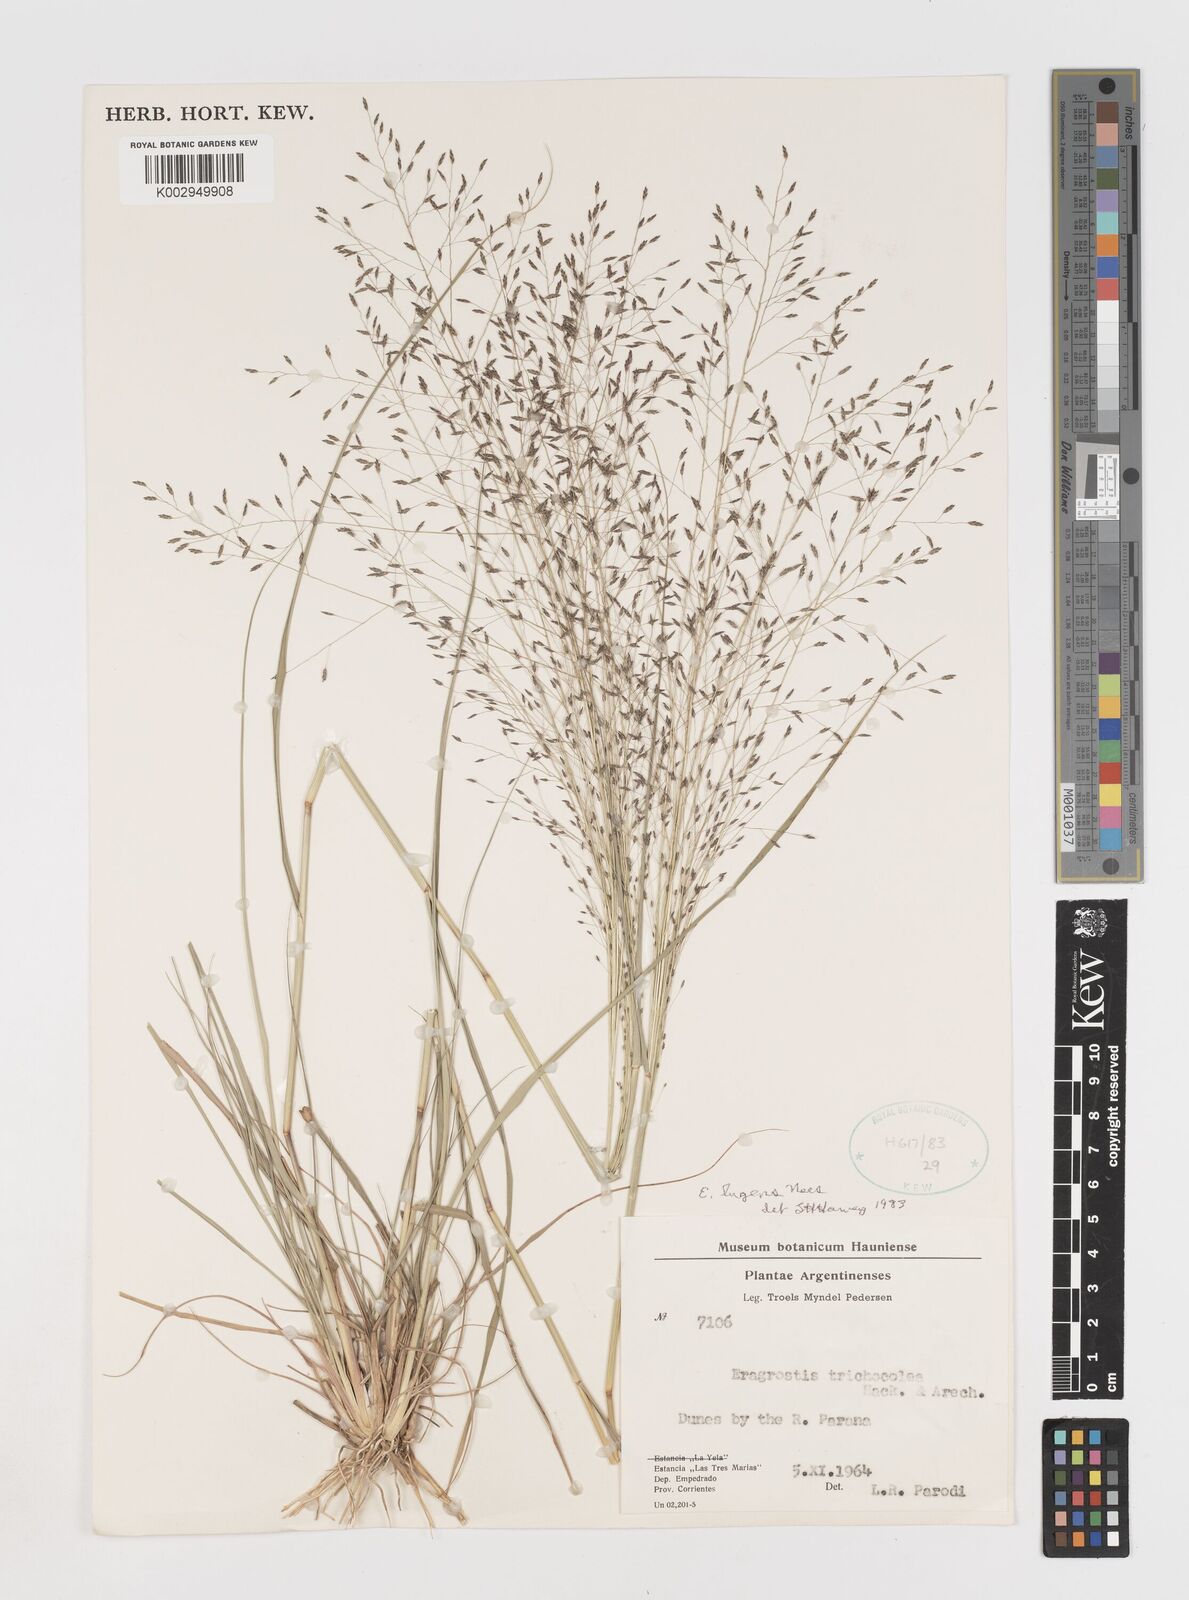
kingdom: Plantae
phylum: Tracheophyta
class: Liliopsida
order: Poales
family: Poaceae
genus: Eragrostis
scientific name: Eragrostis lugens
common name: Mourning love grass
